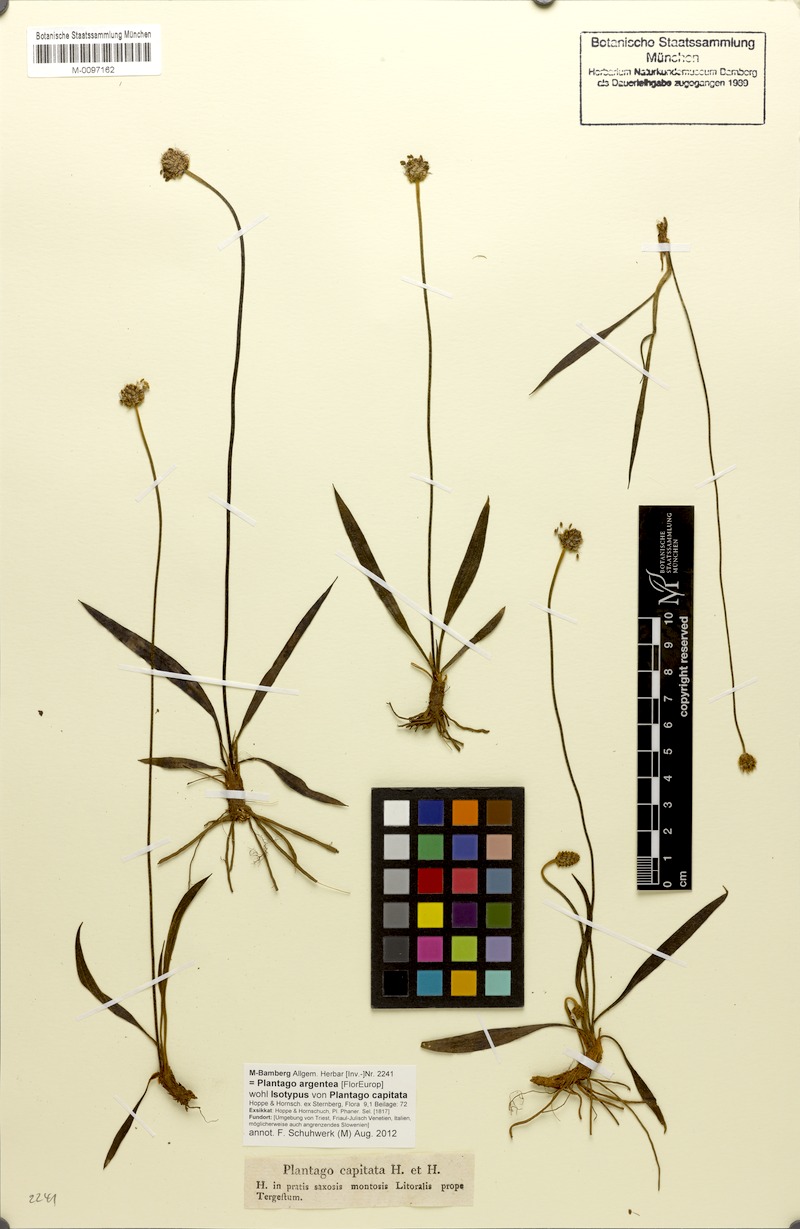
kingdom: Plantae
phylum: Tracheophyta
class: Magnoliopsida
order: Lamiales
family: Plantaginaceae
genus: Plantago
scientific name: Plantago argentea
